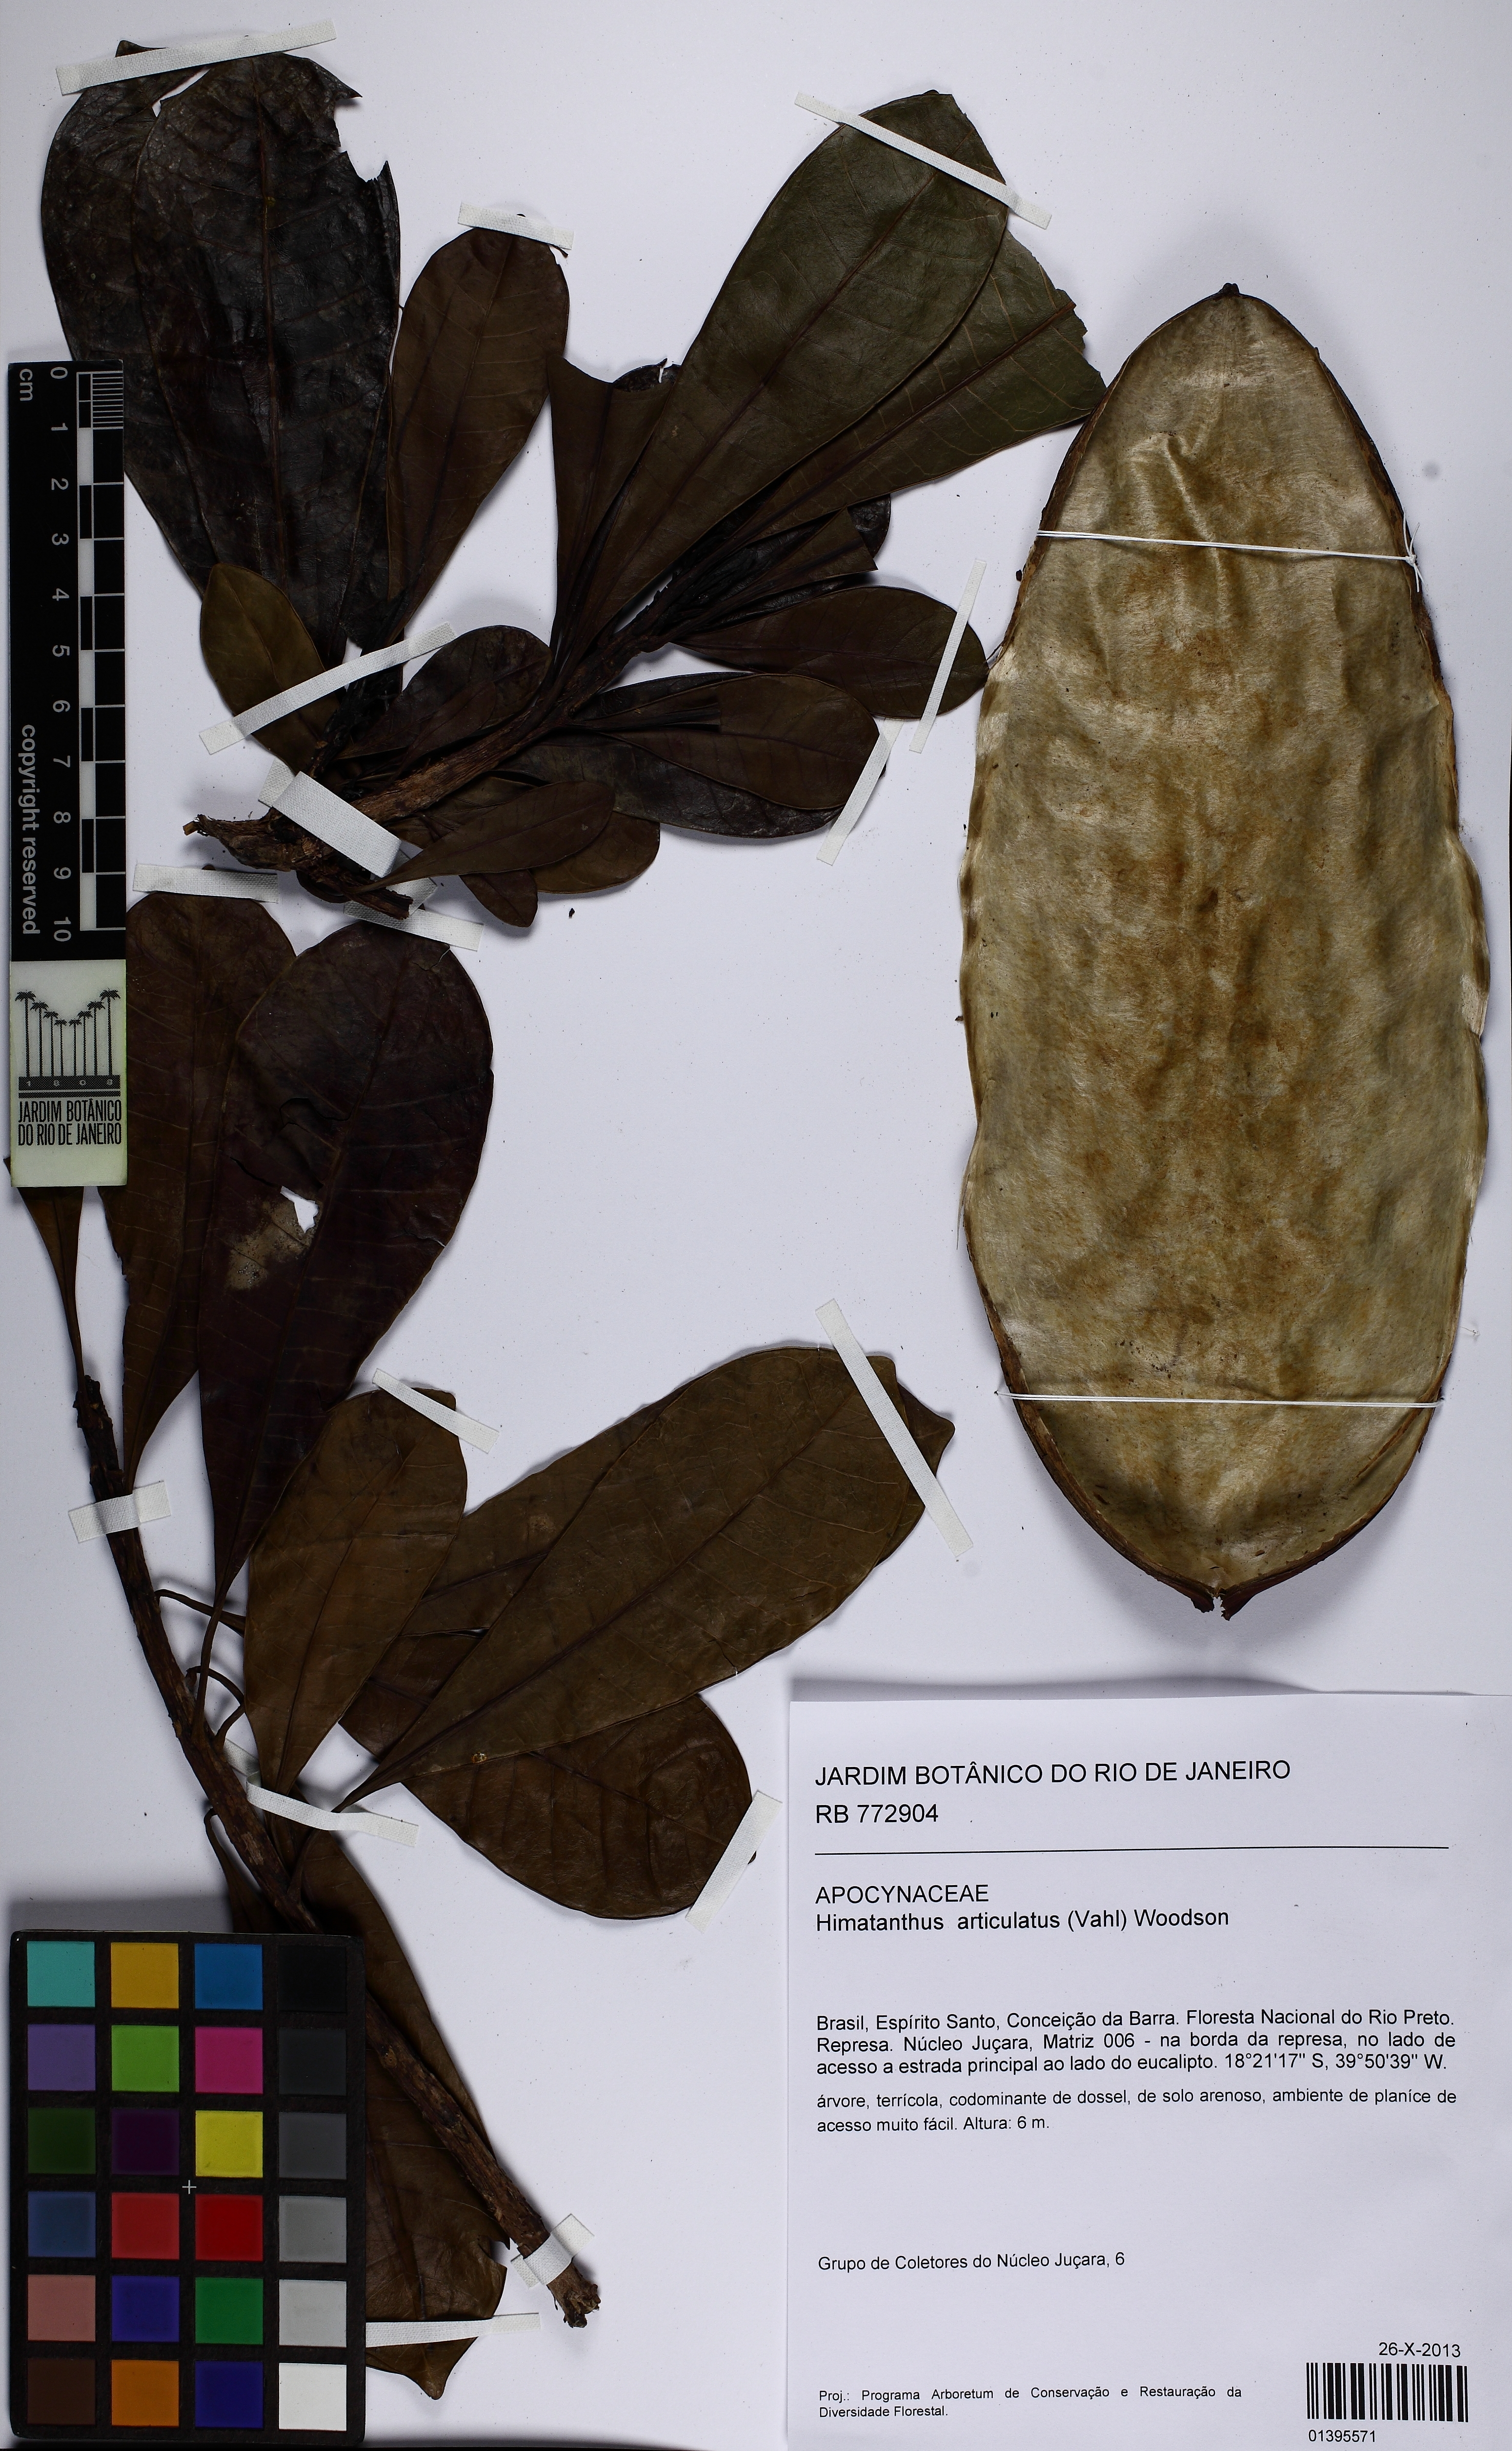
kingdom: Plantae
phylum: Tracheophyta
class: Magnoliopsida
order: Gentianales
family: Apocynaceae
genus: Himatanthus
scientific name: Himatanthus bracteatus
